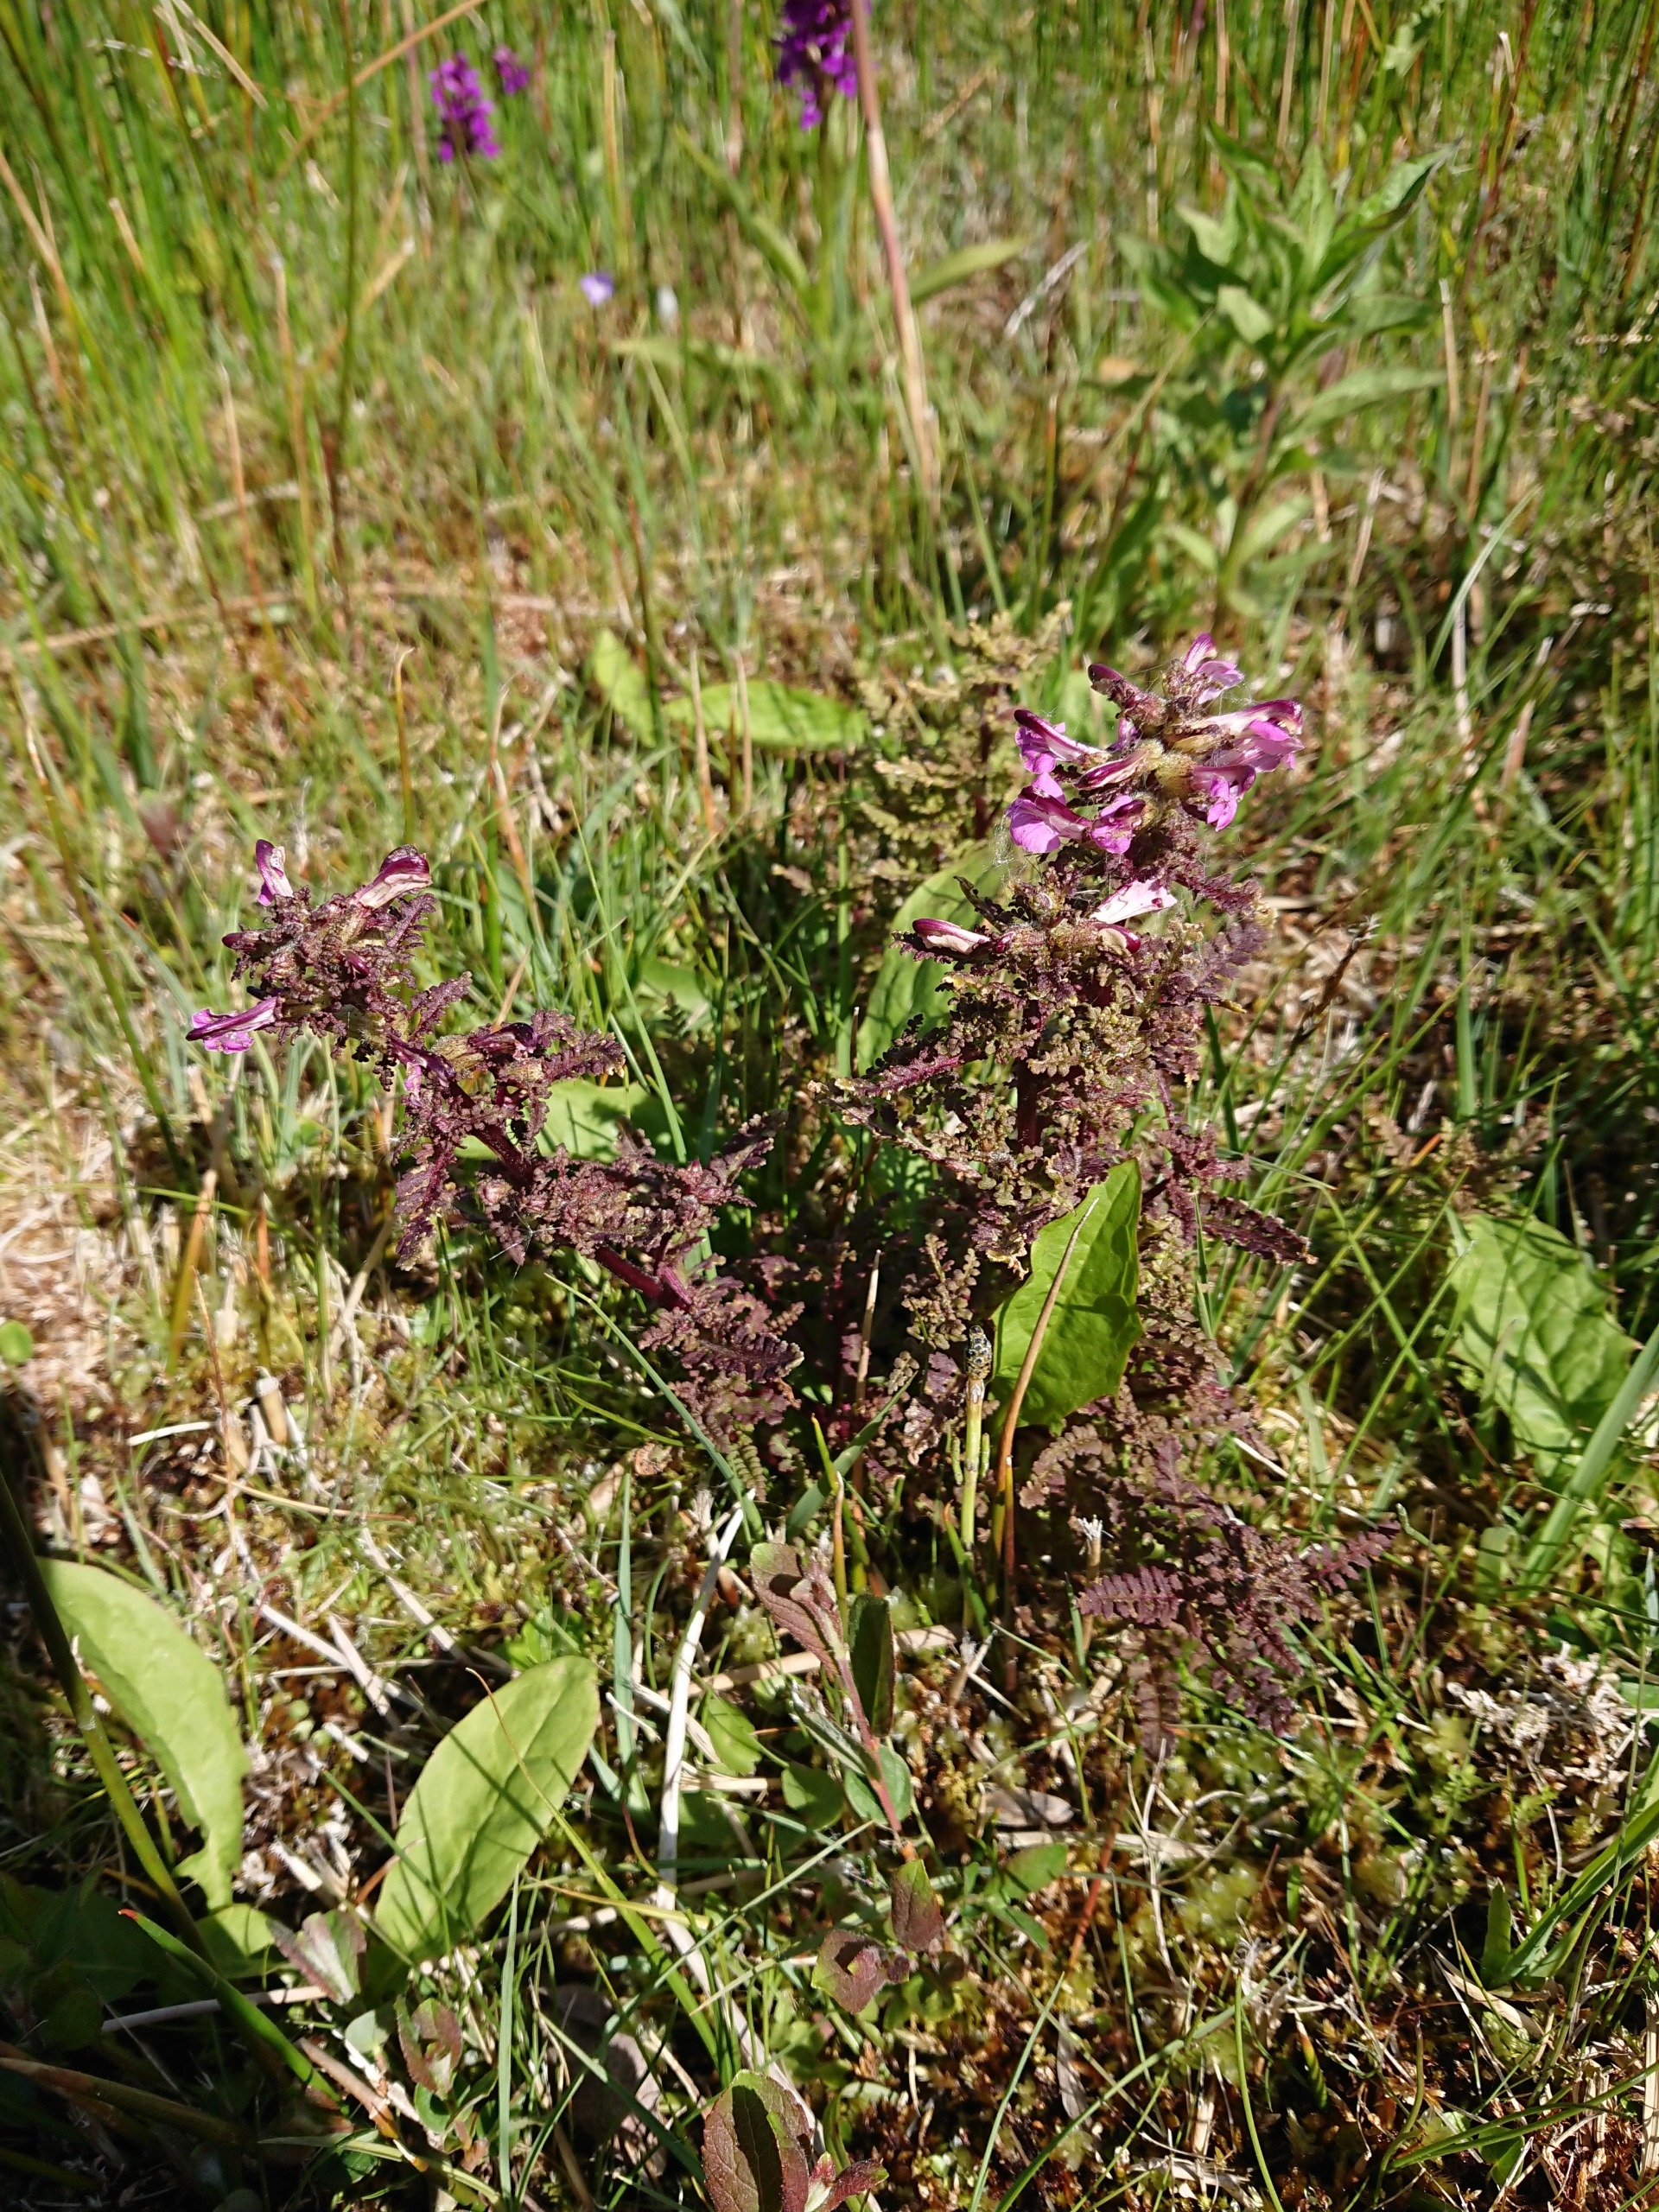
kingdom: Plantae
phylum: Tracheophyta
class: Magnoliopsida
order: Lamiales
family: Orobanchaceae
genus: Pedicularis
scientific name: Pedicularis palustris
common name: Eng-troldurt
